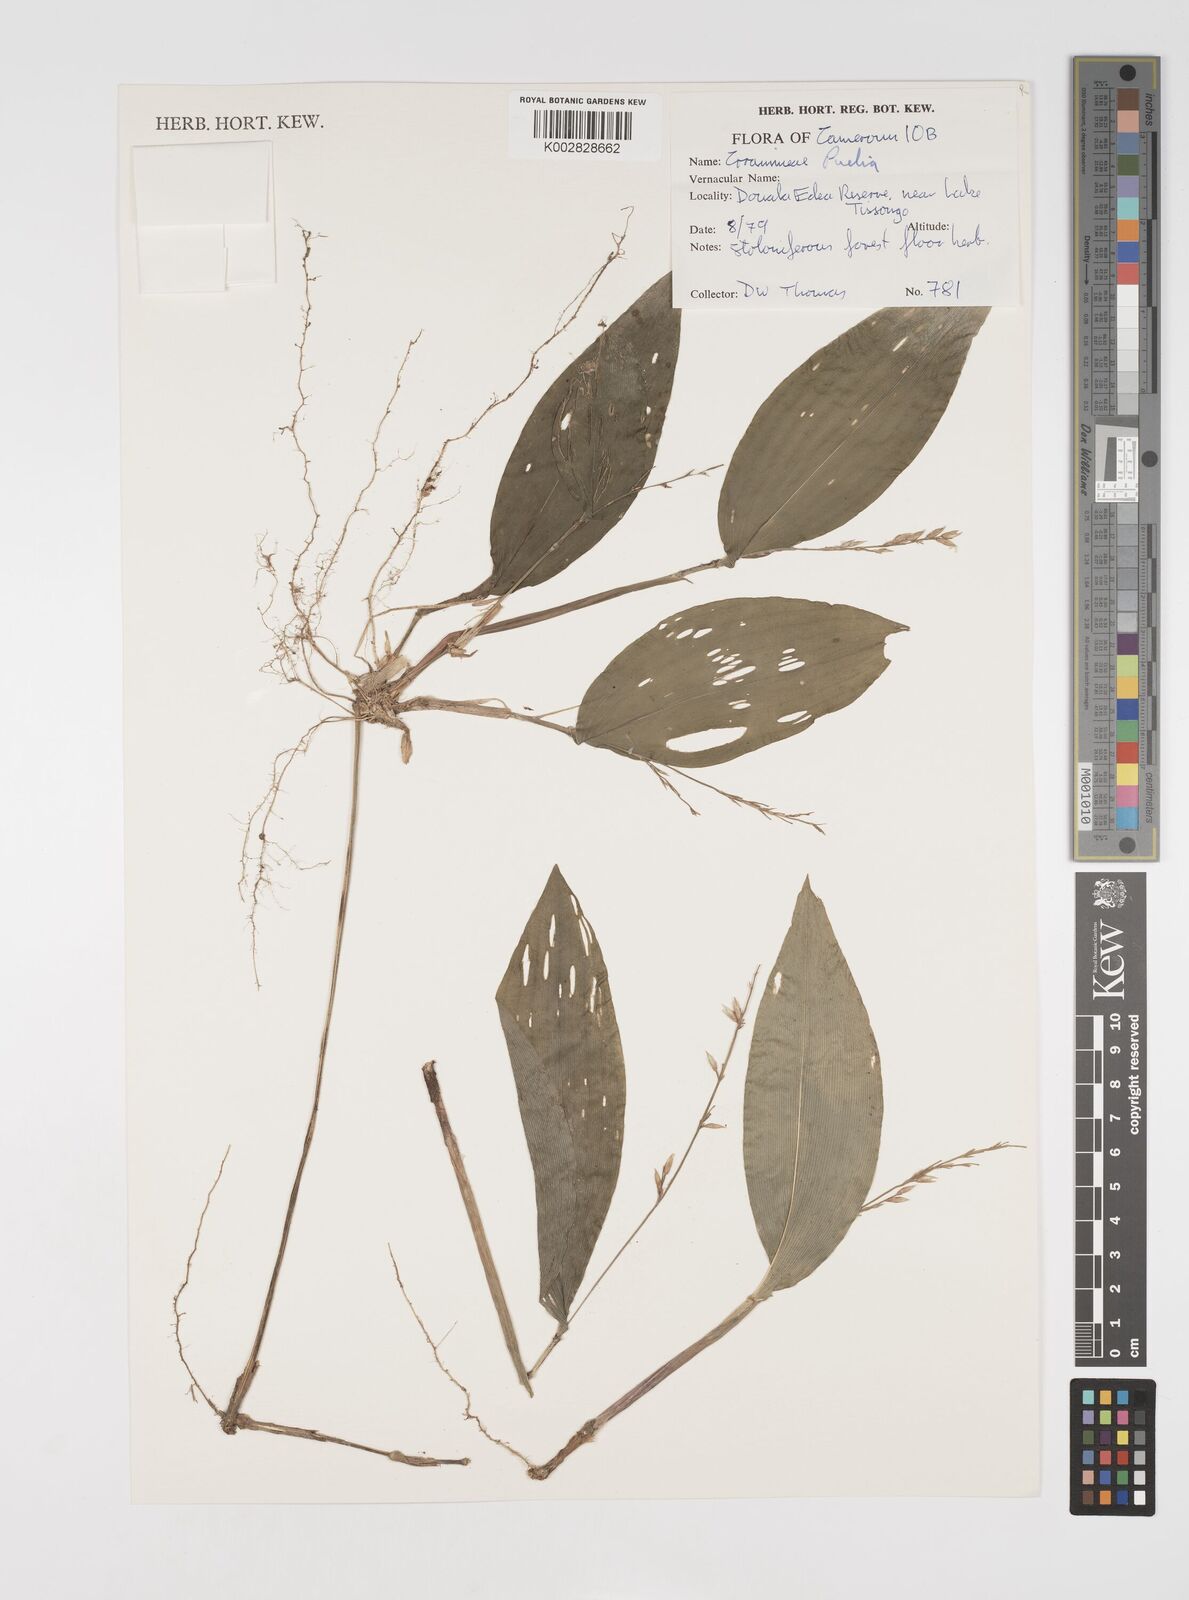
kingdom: Plantae
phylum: Tracheophyta
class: Liliopsida
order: Poales
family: Poaceae
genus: Microcalamus
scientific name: Microcalamus barbinodis
